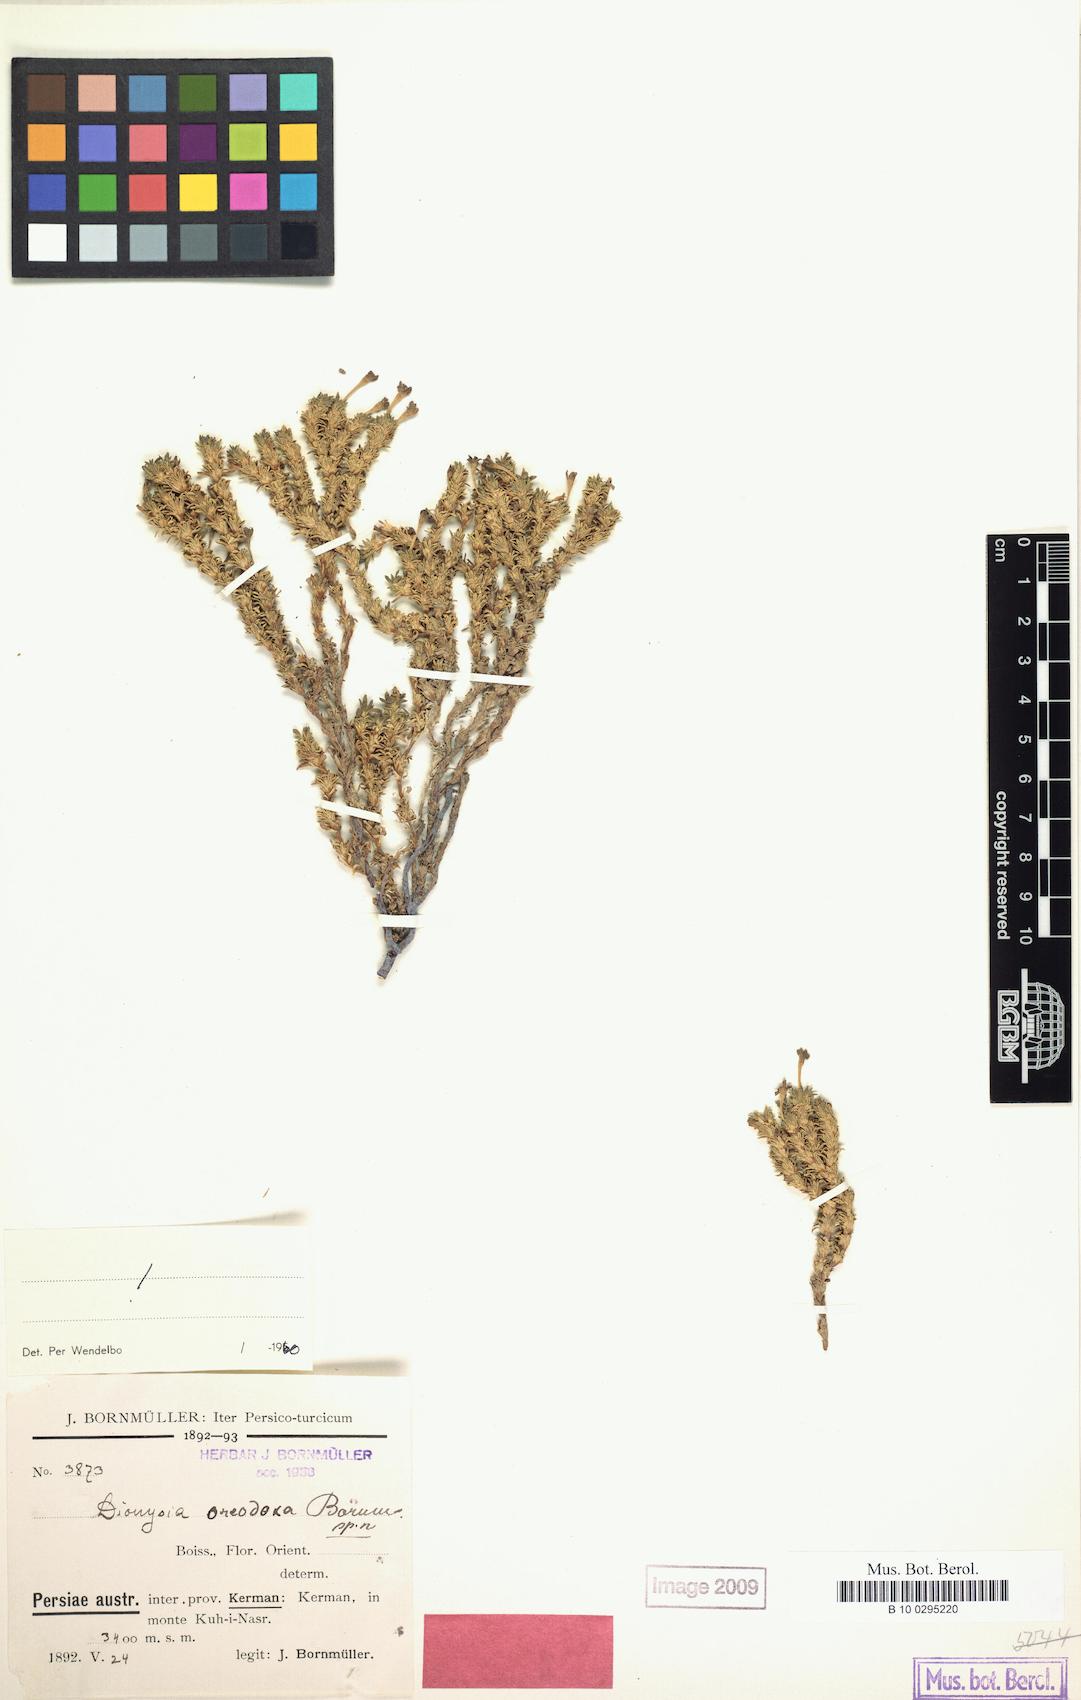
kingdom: Plantae
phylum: Tracheophyta
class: Magnoliopsida
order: Ericales
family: Primulaceae
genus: Dionysia
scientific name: Dionysia oreodoxa
